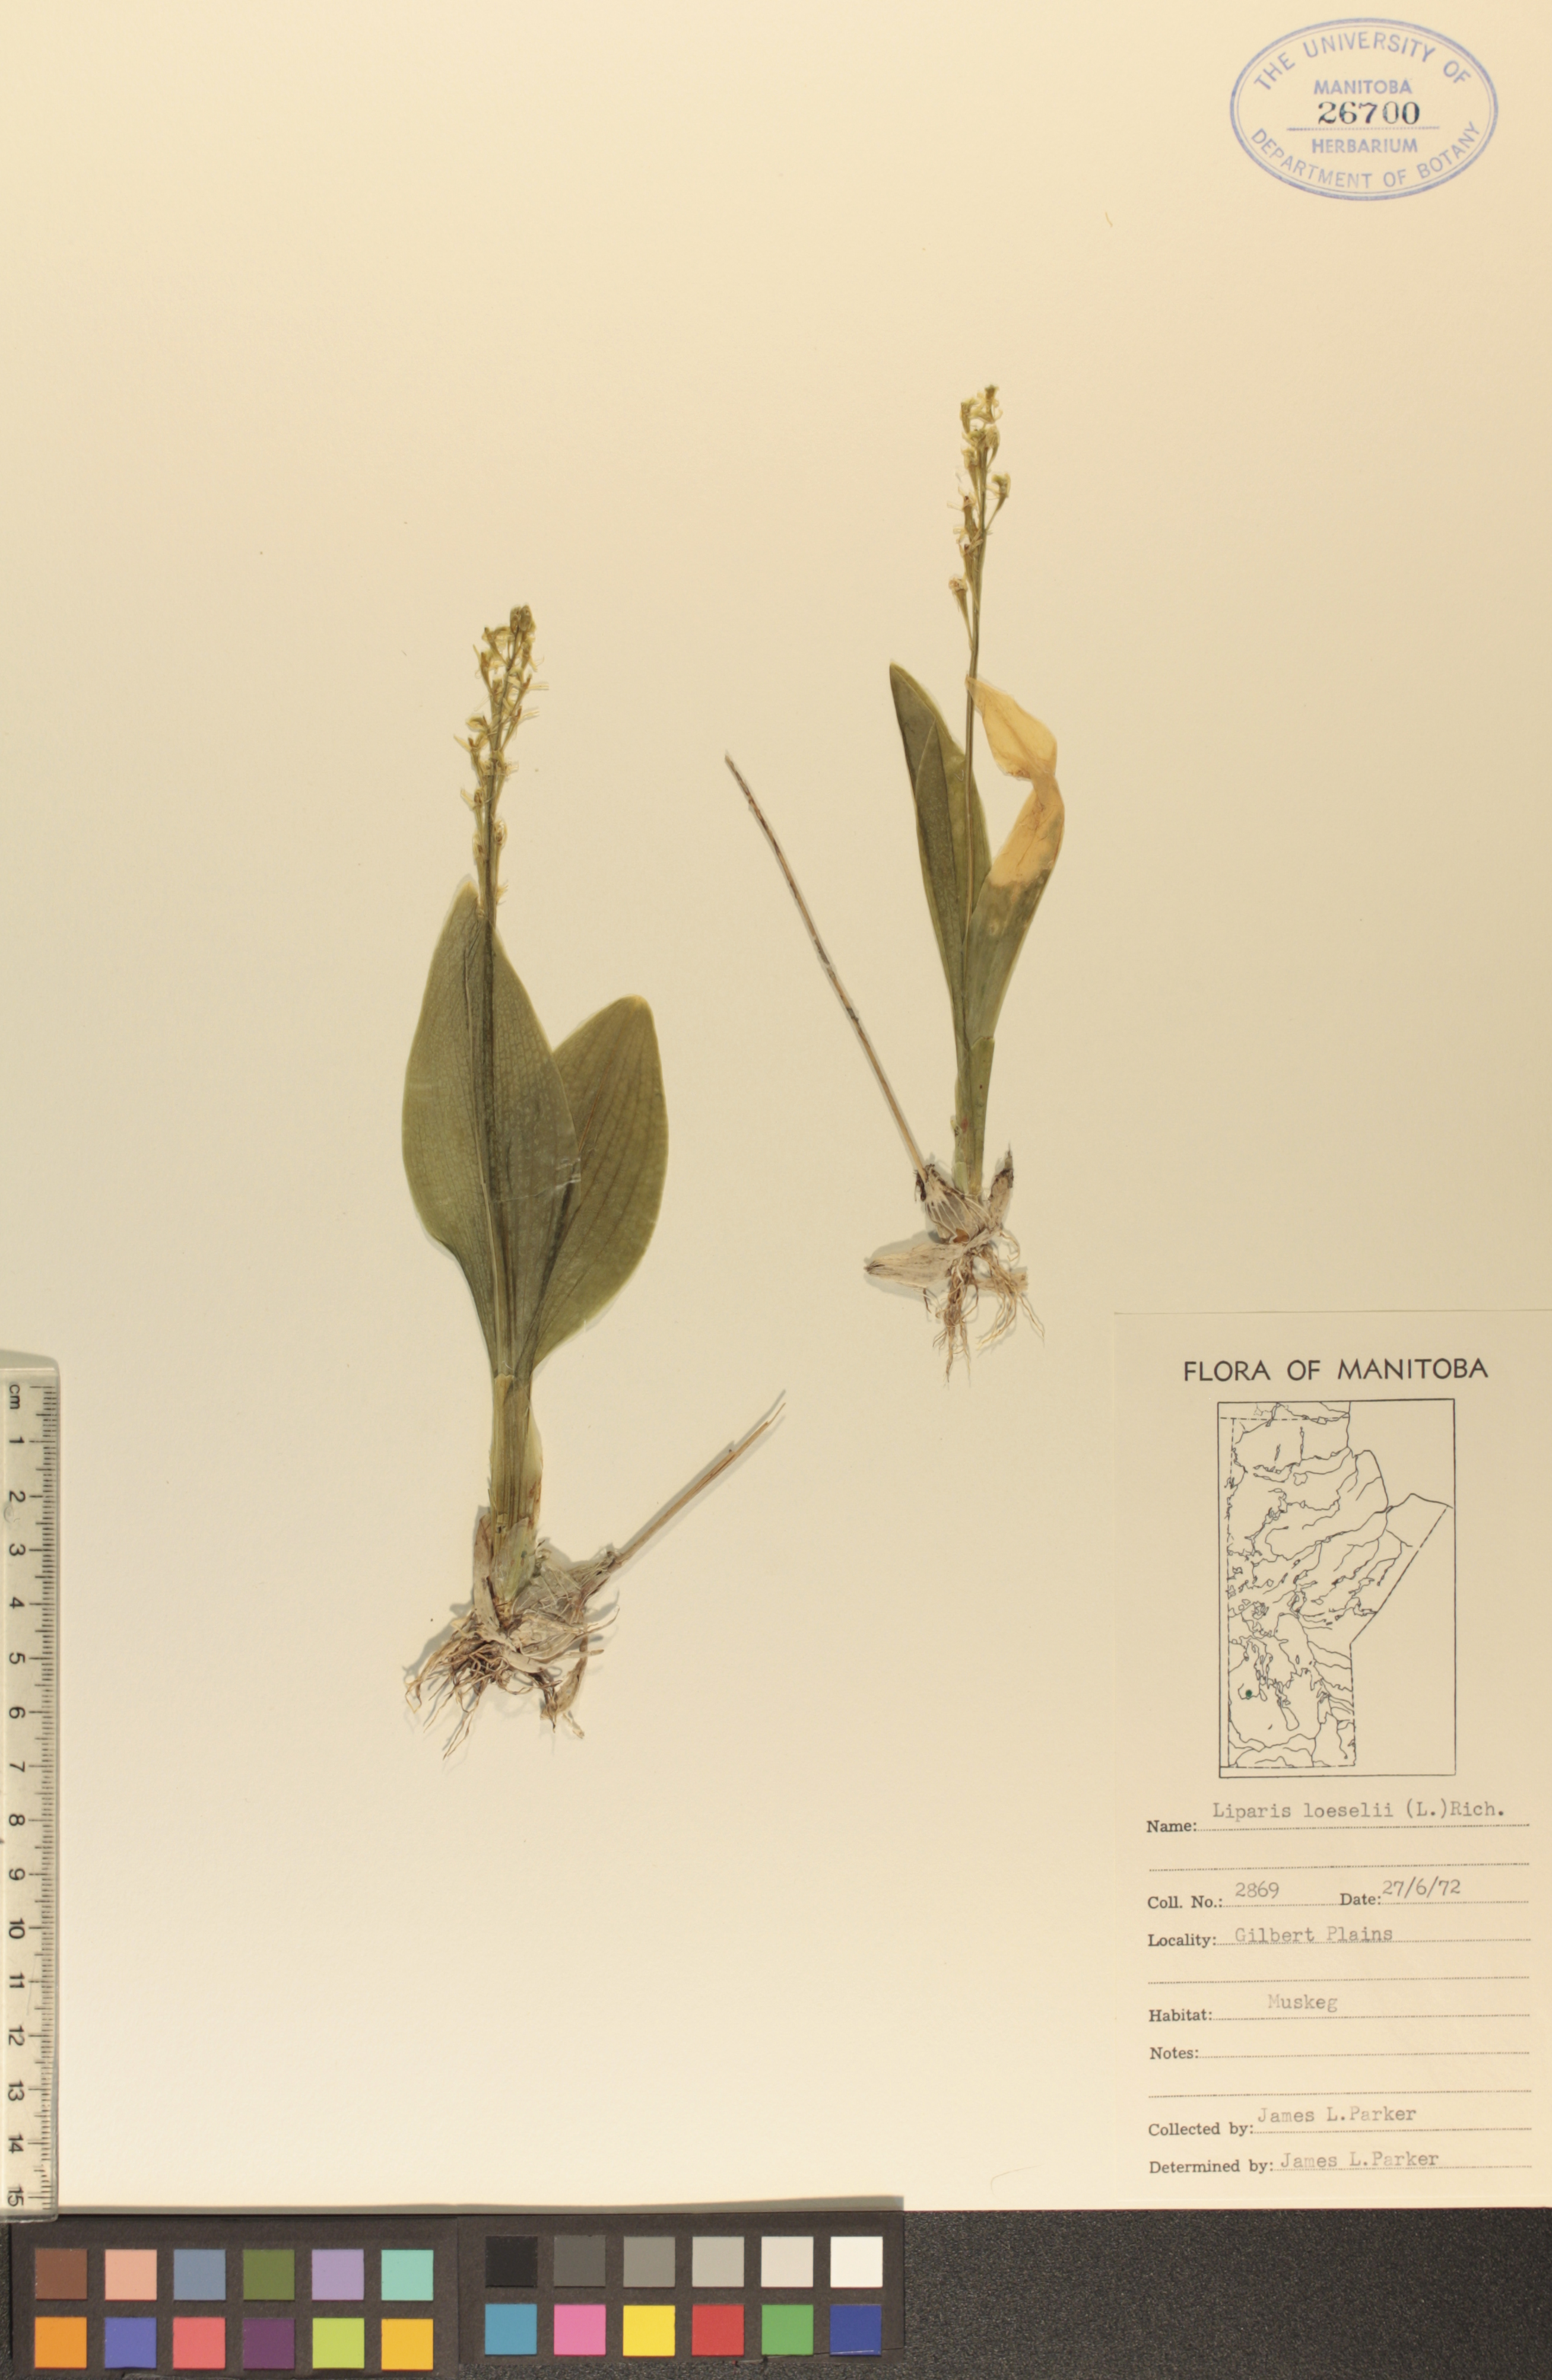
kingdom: Animalia
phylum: Arthropoda
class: Insecta
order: Coleoptera
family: Curculionidae
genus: Liparis
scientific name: Liparis loeselii
